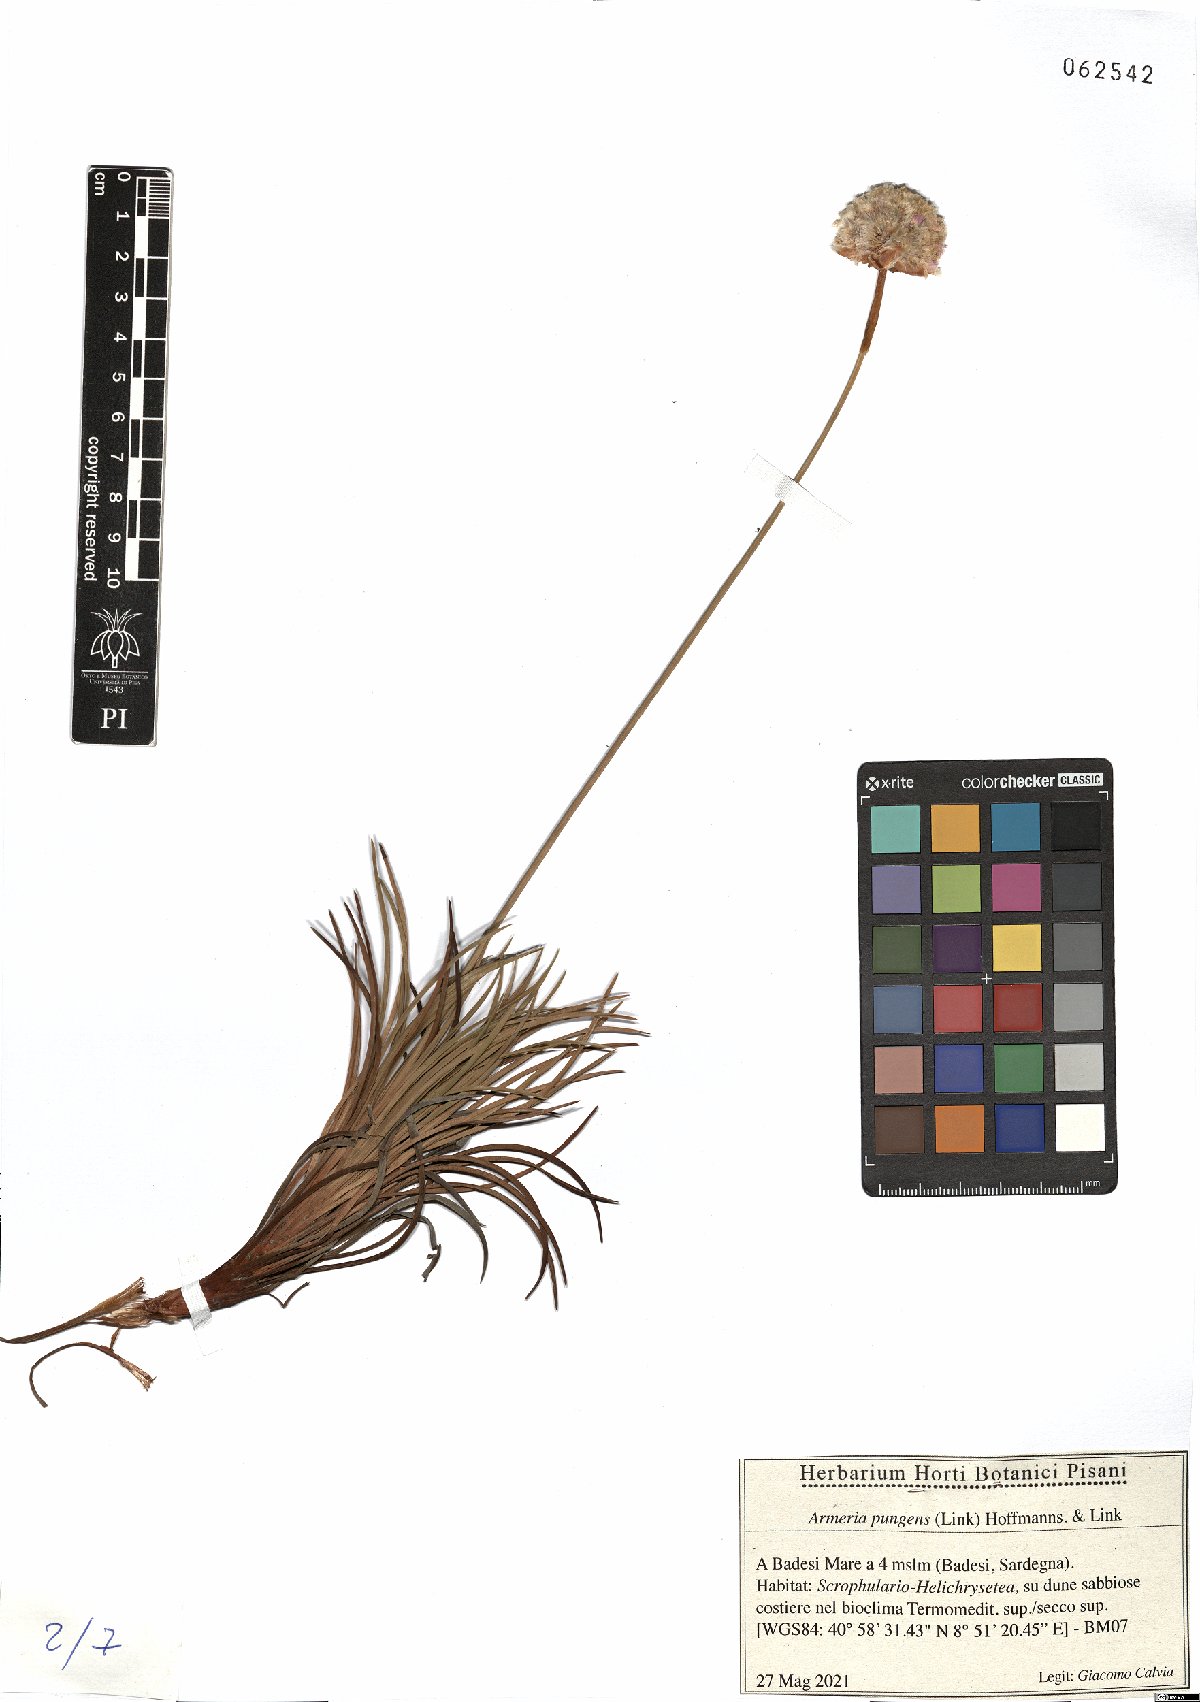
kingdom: Plantae
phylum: Tracheophyta
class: Magnoliopsida
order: Caryophyllales
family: Plumbaginaceae
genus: Armeria
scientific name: Armeria pungens
